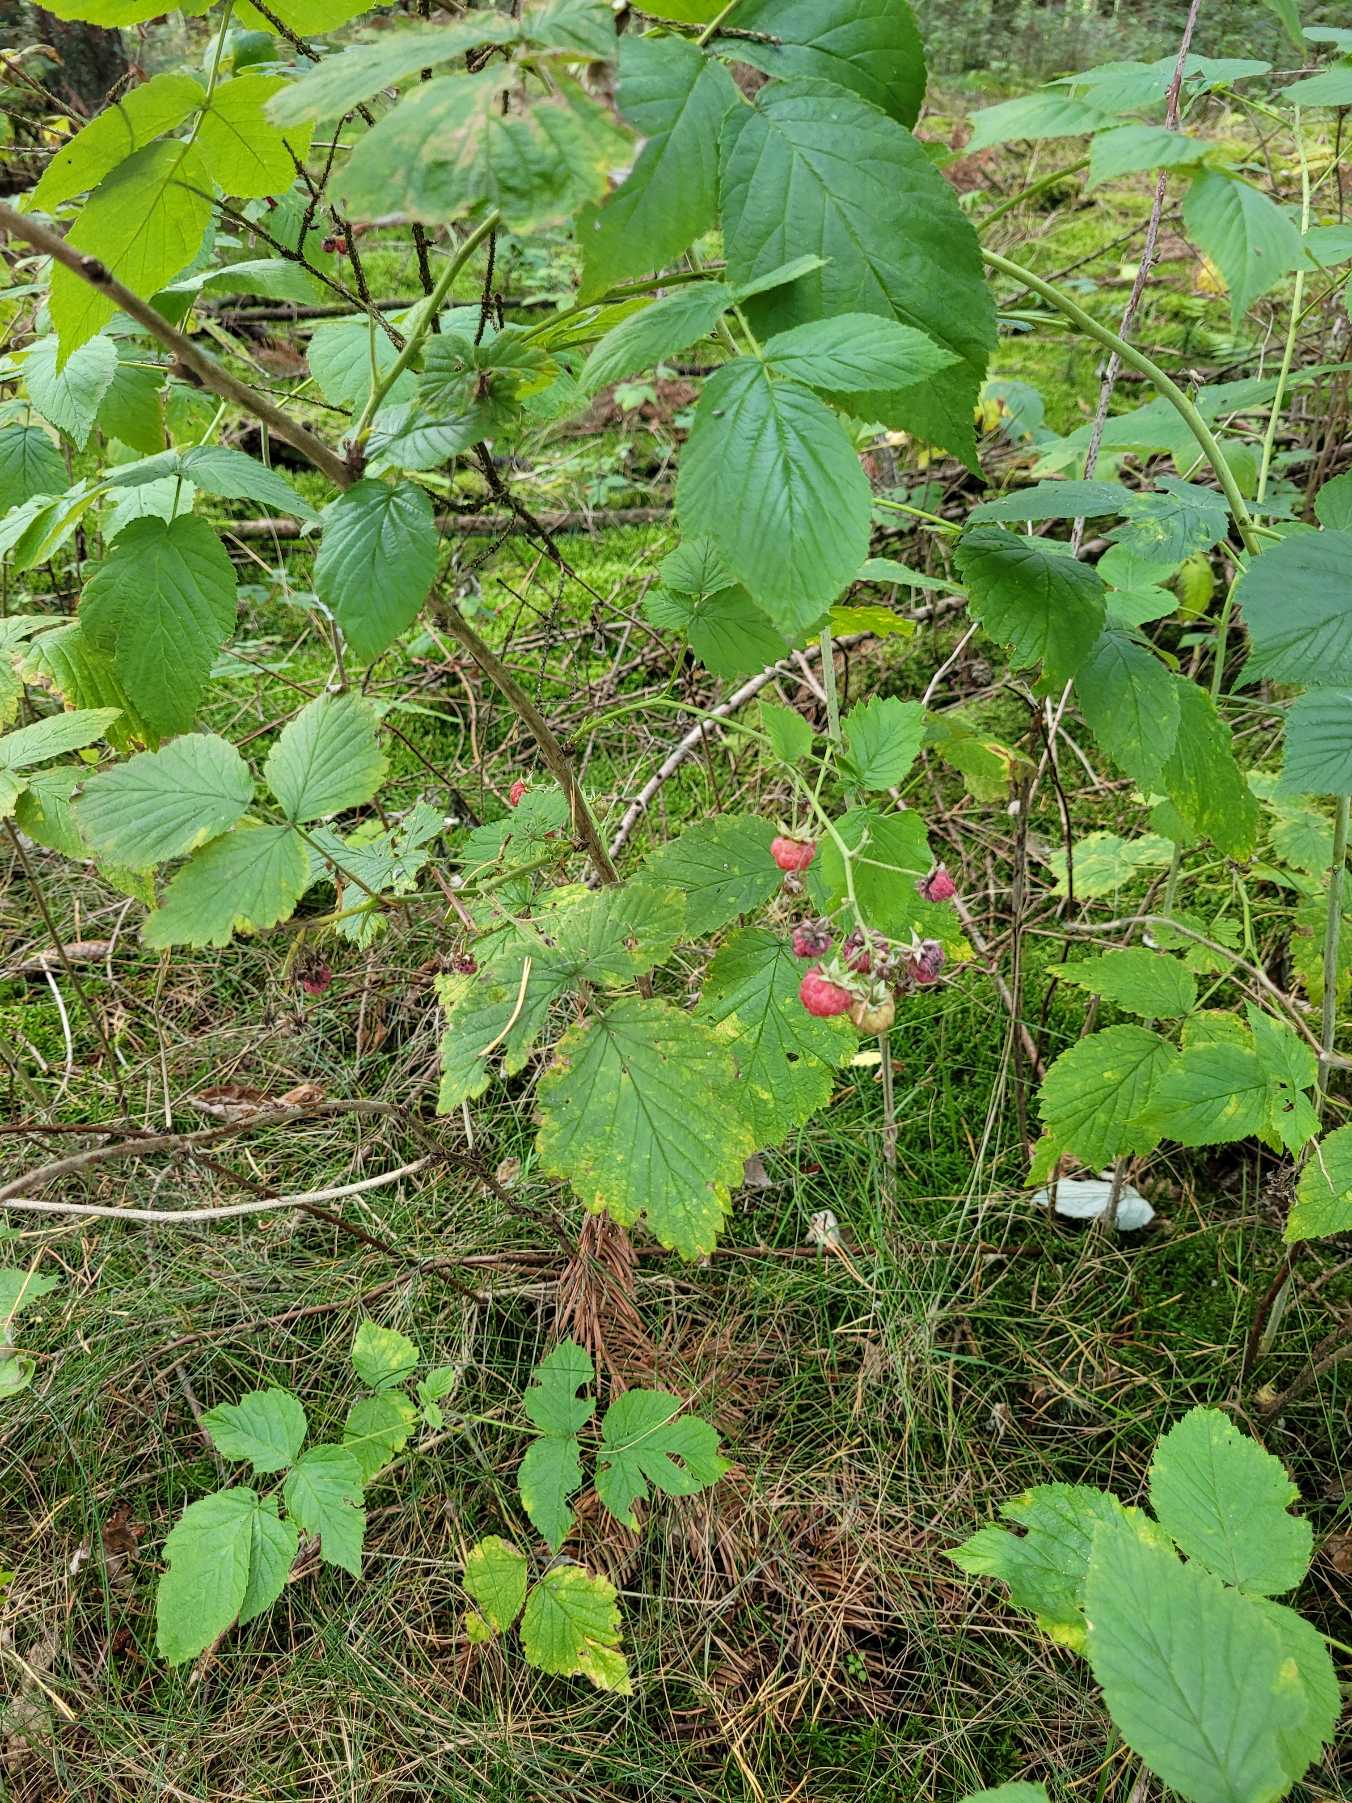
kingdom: Plantae
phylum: Tracheophyta
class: Magnoliopsida
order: Rosales
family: Rosaceae
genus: Rubus
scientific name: Rubus idaeus
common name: Hindbær
